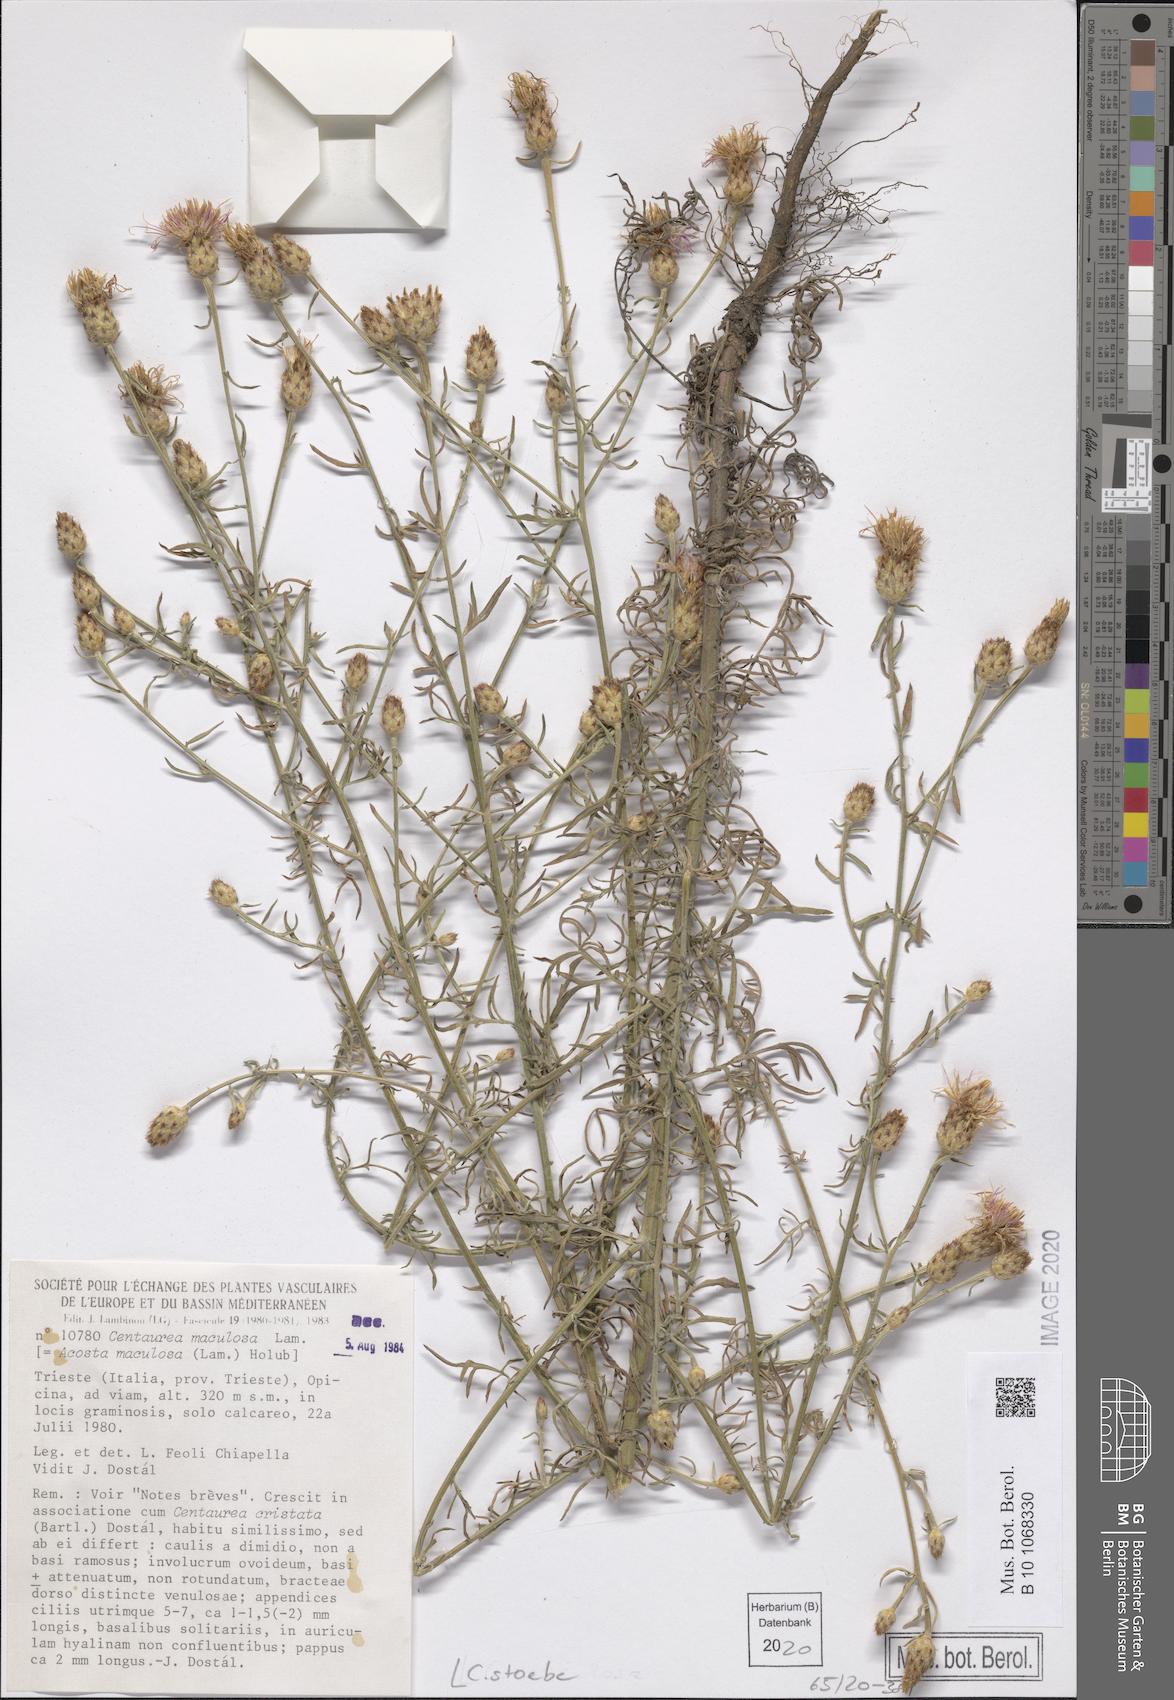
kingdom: Plantae
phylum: Tracheophyta
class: Magnoliopsida
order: Asterales
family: Asteraceae
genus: Centaurea
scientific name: Centaurea stoebe
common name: Spotted knapweed
